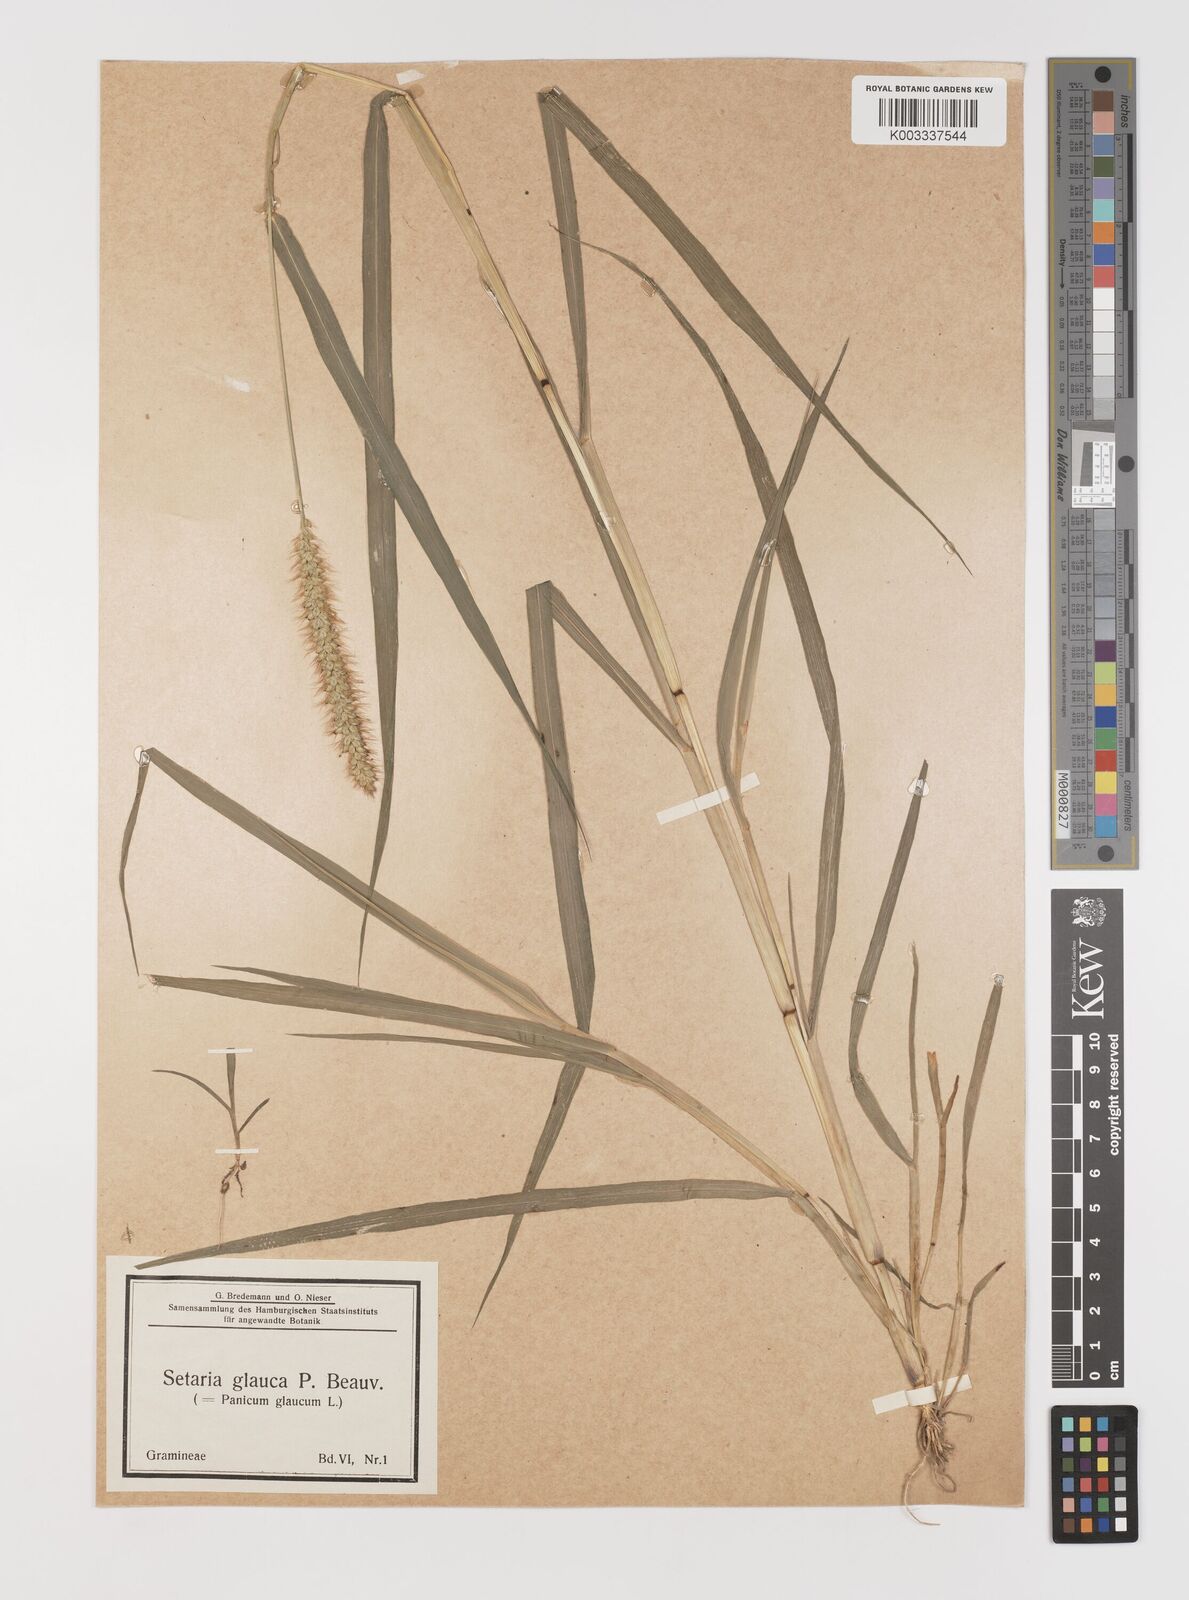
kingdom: Plantae
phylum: Tracheophyta
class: Liliopsida
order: Poales
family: Poaceae
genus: Setaria
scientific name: Setaria pumila
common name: Yellow bristle-grass
